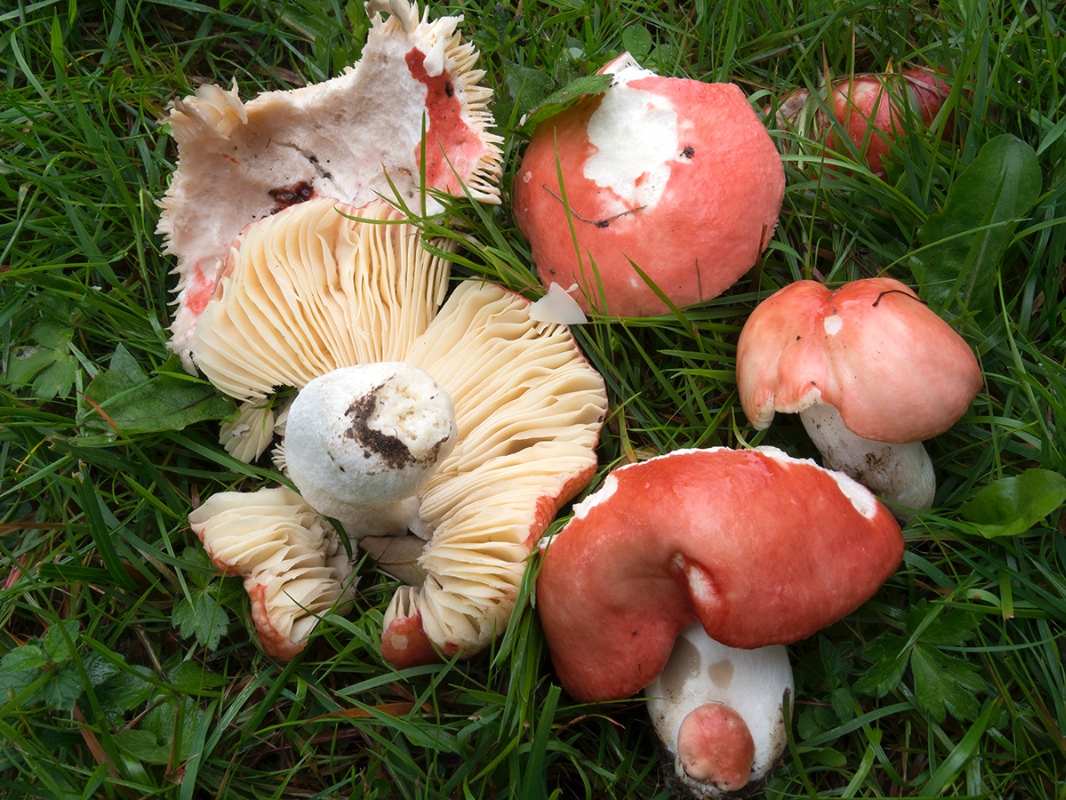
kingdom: Fungi
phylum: Basidiomycota
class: Agaricomycetes
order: Russulales
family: Russulaceae
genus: Russula
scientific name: Russula pseudointegra
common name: cinnoberrød skørhat
